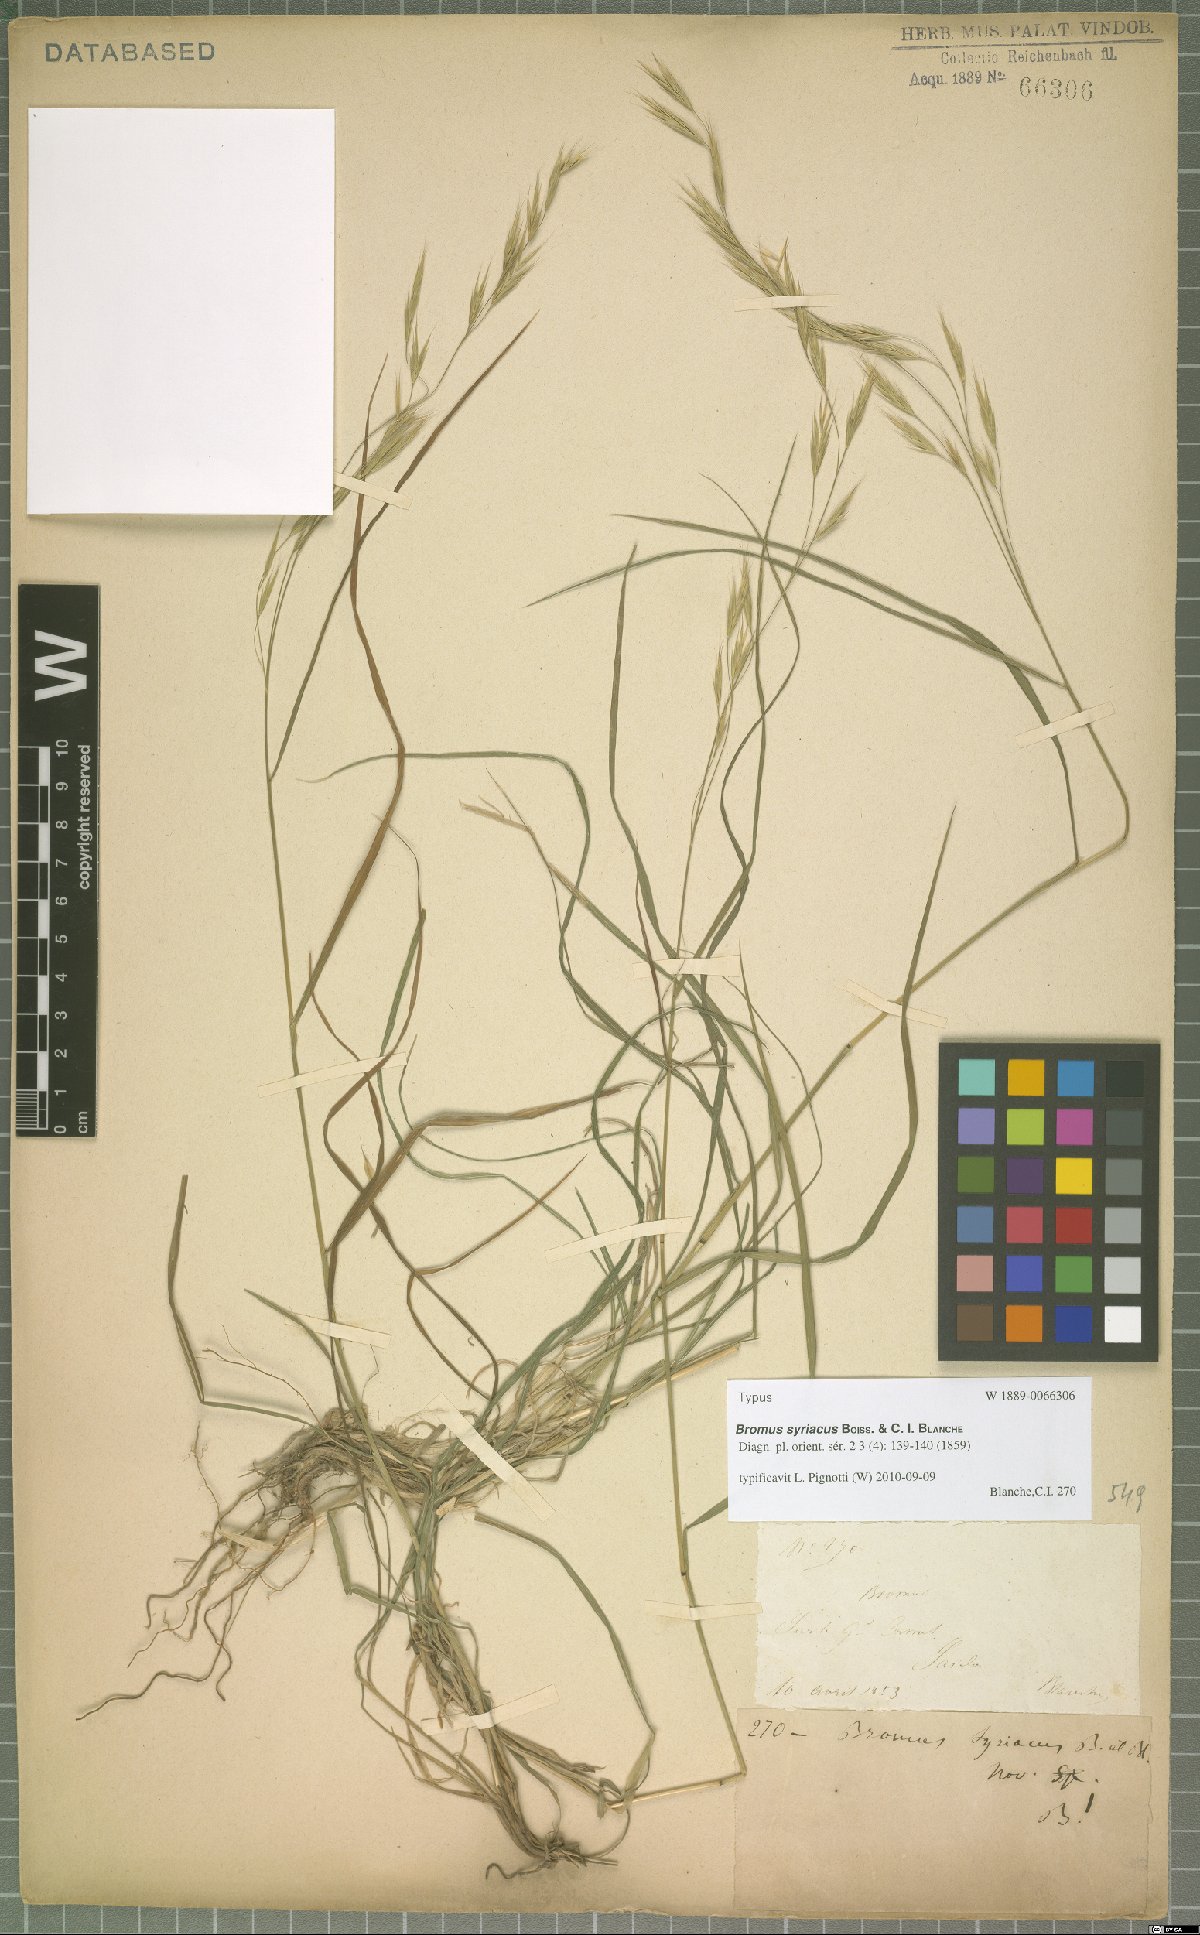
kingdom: Plantae
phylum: Tracheophyta
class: Liliopsida
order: Poales
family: Poaceae
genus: Bromus
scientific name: Bromus syriacus
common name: Syrian brome
